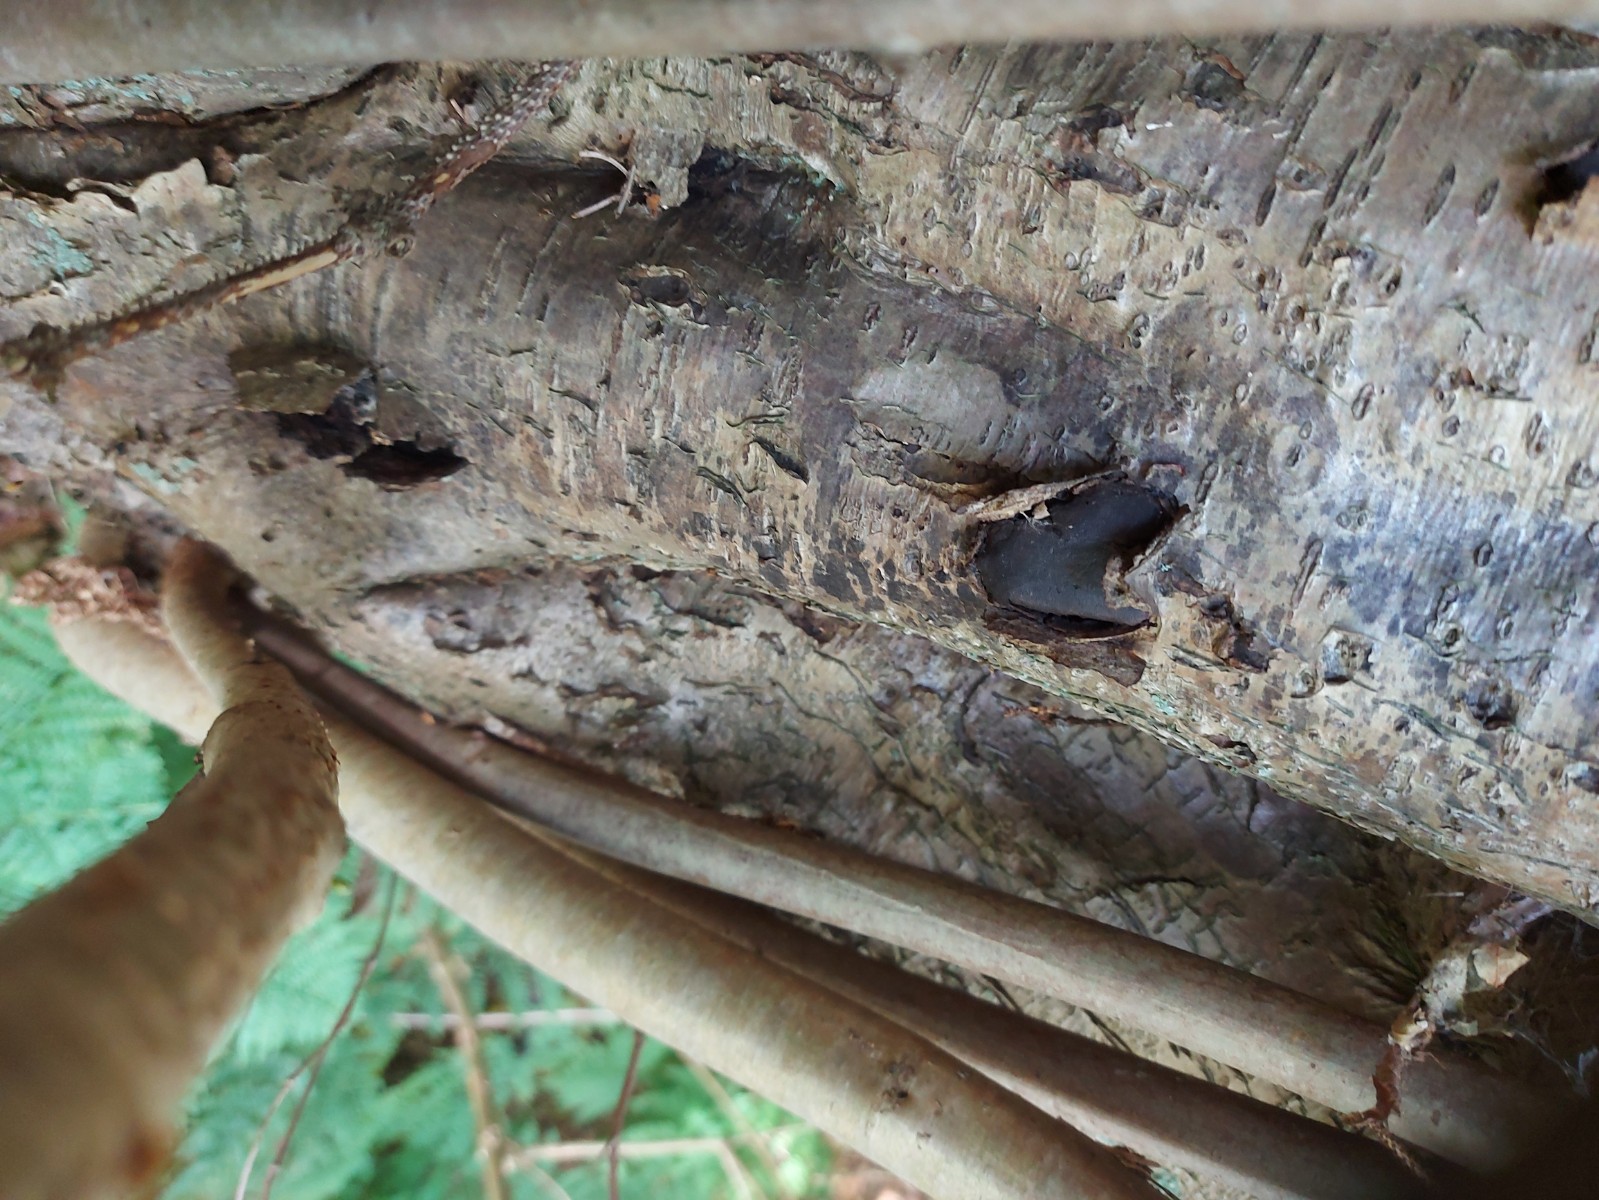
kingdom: Fungi
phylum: Ascomycota
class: Sordariomycetes
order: Boliniales
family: Boliniaceae
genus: Camarops
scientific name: Camarops polysperma
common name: elle-kulsnegl
